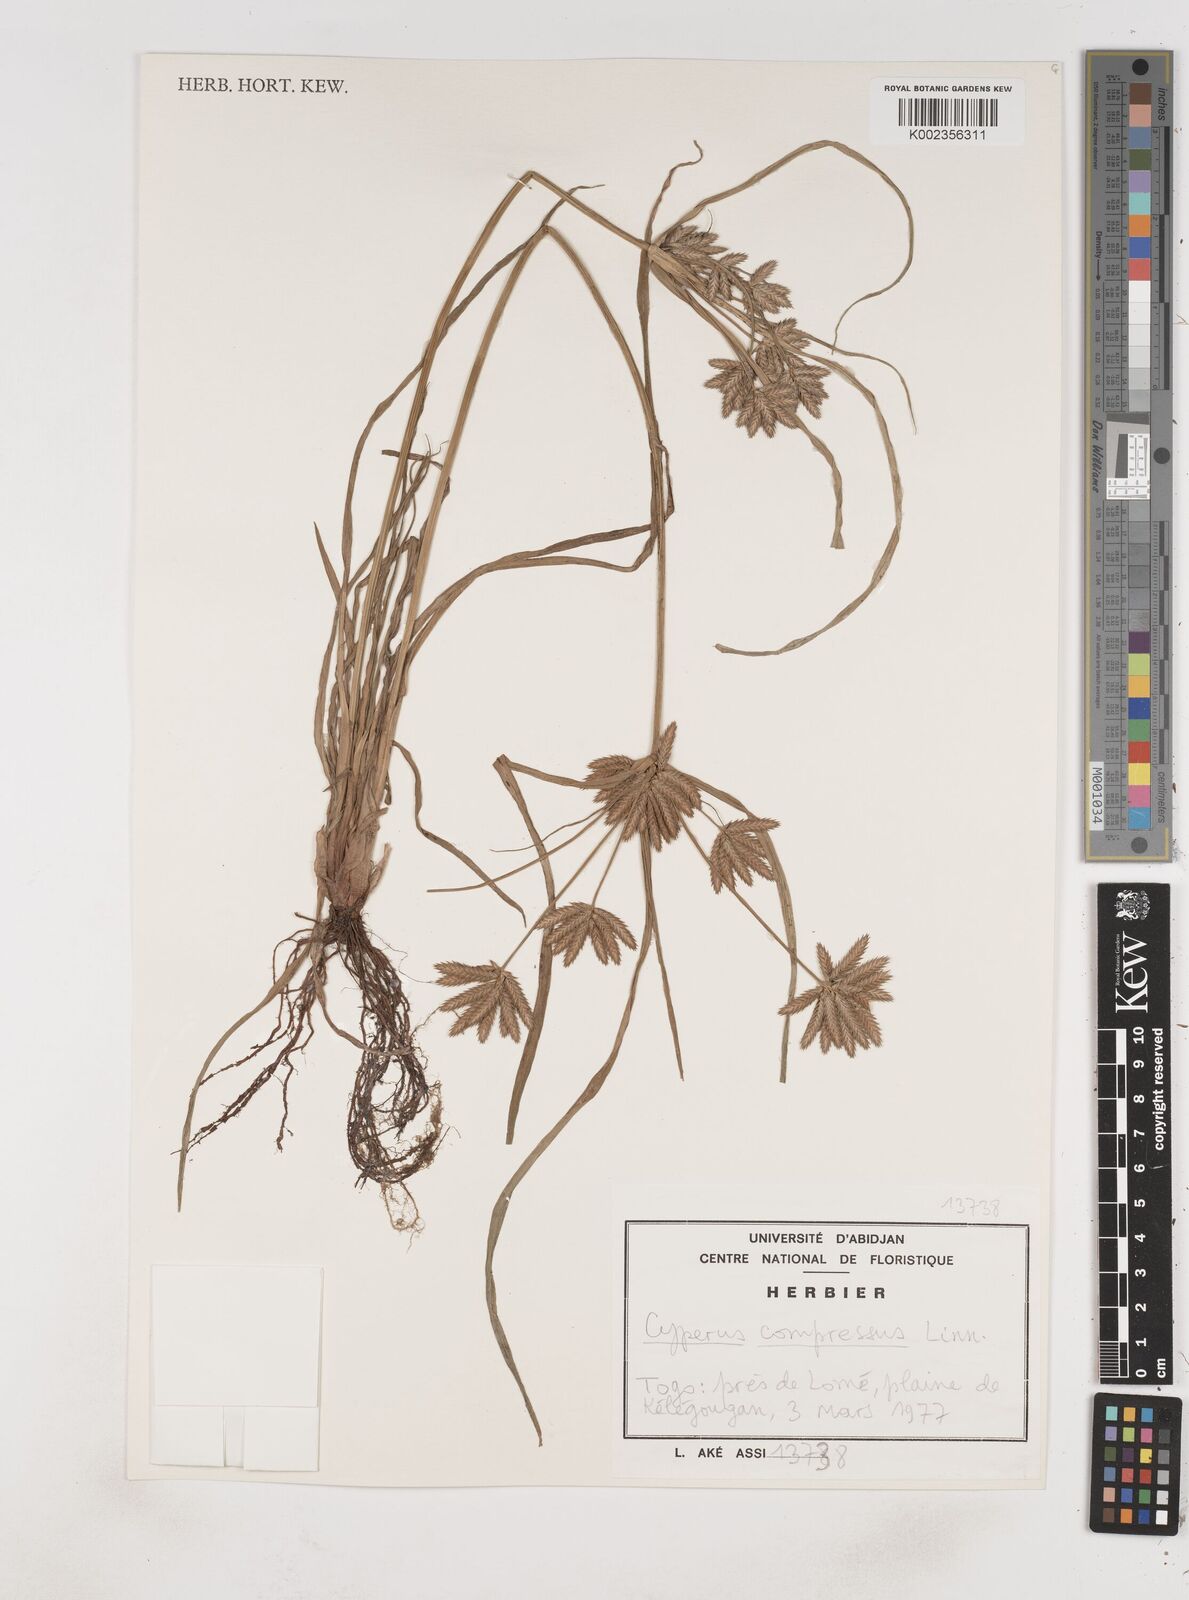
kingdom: Plantae
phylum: Tracheophyta
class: Liliopsida
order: Poales
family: Cyperaceae
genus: Cyperus
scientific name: Cyperus compressus
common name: Poorland flatsedge
